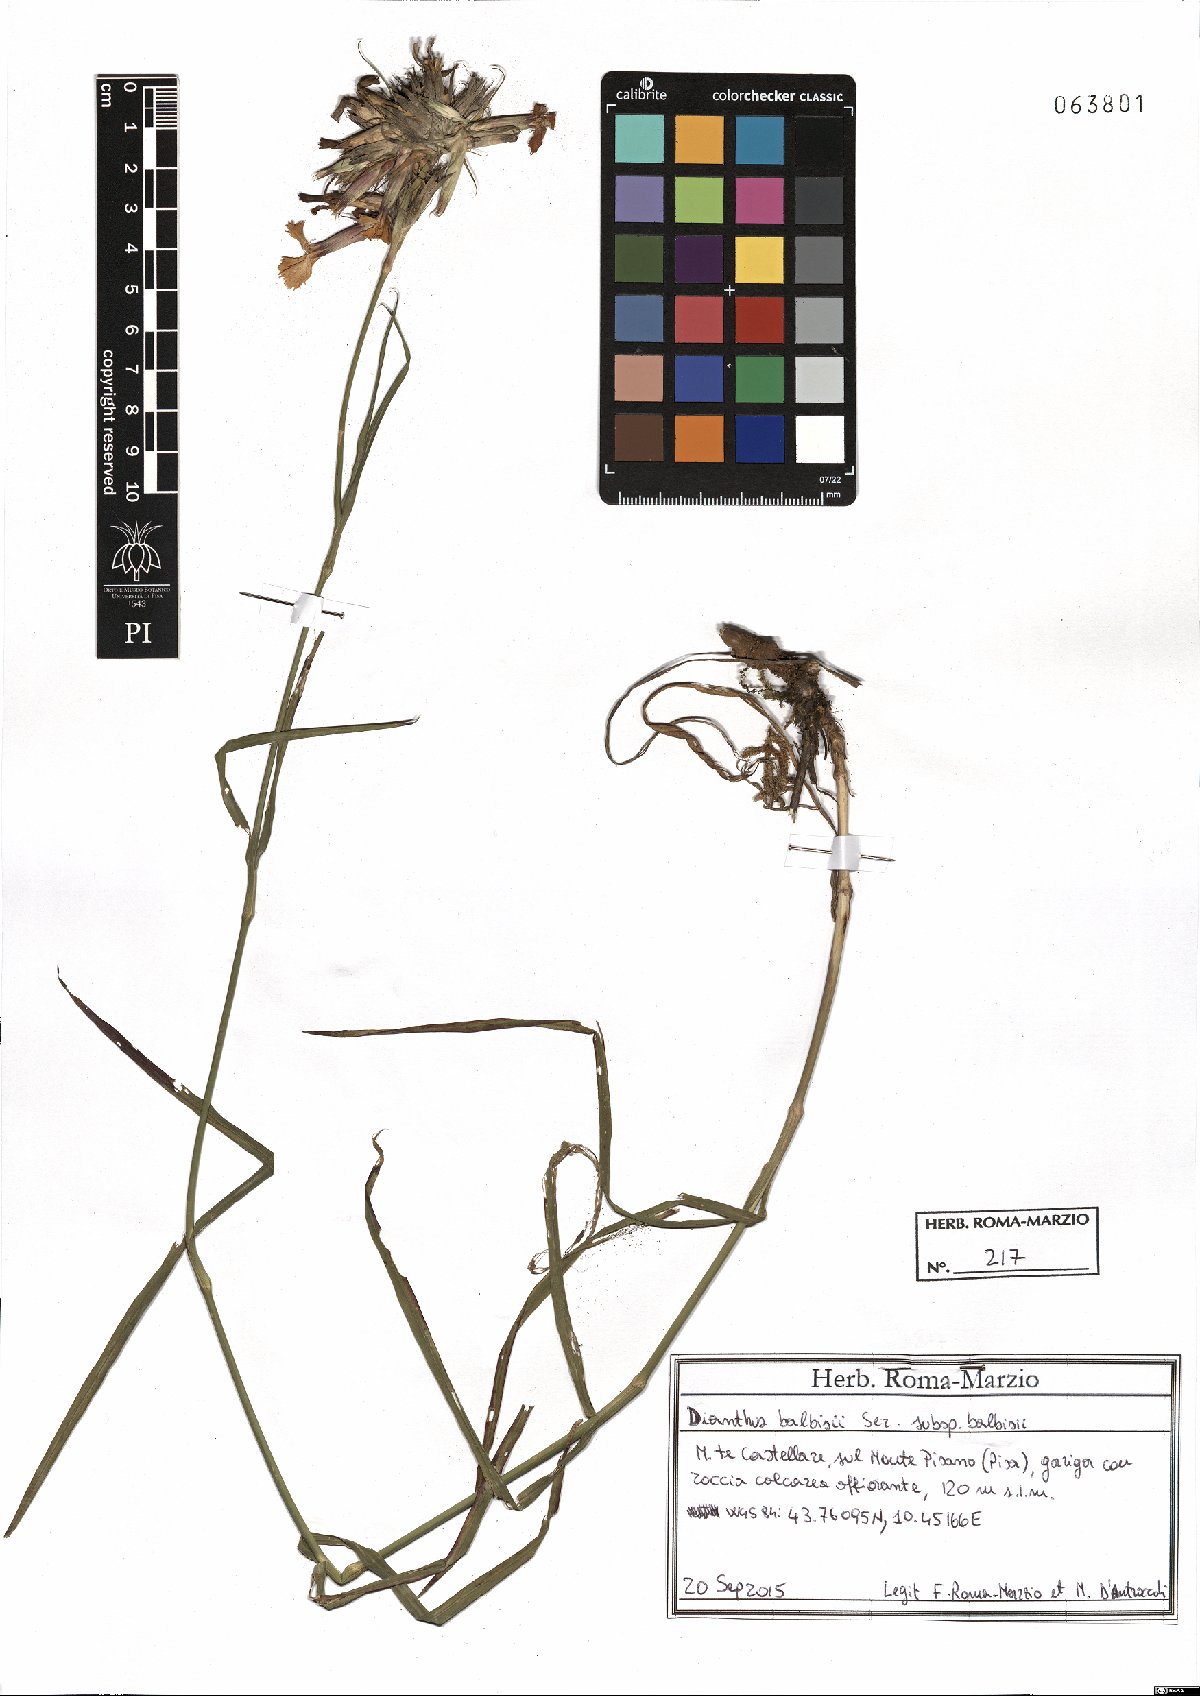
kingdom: Plantae
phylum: Tracheophyta
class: Magnoliopsida
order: Caryophyllales
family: Caryophyllaceae
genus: Dianthus
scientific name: Dianthus balbisii
